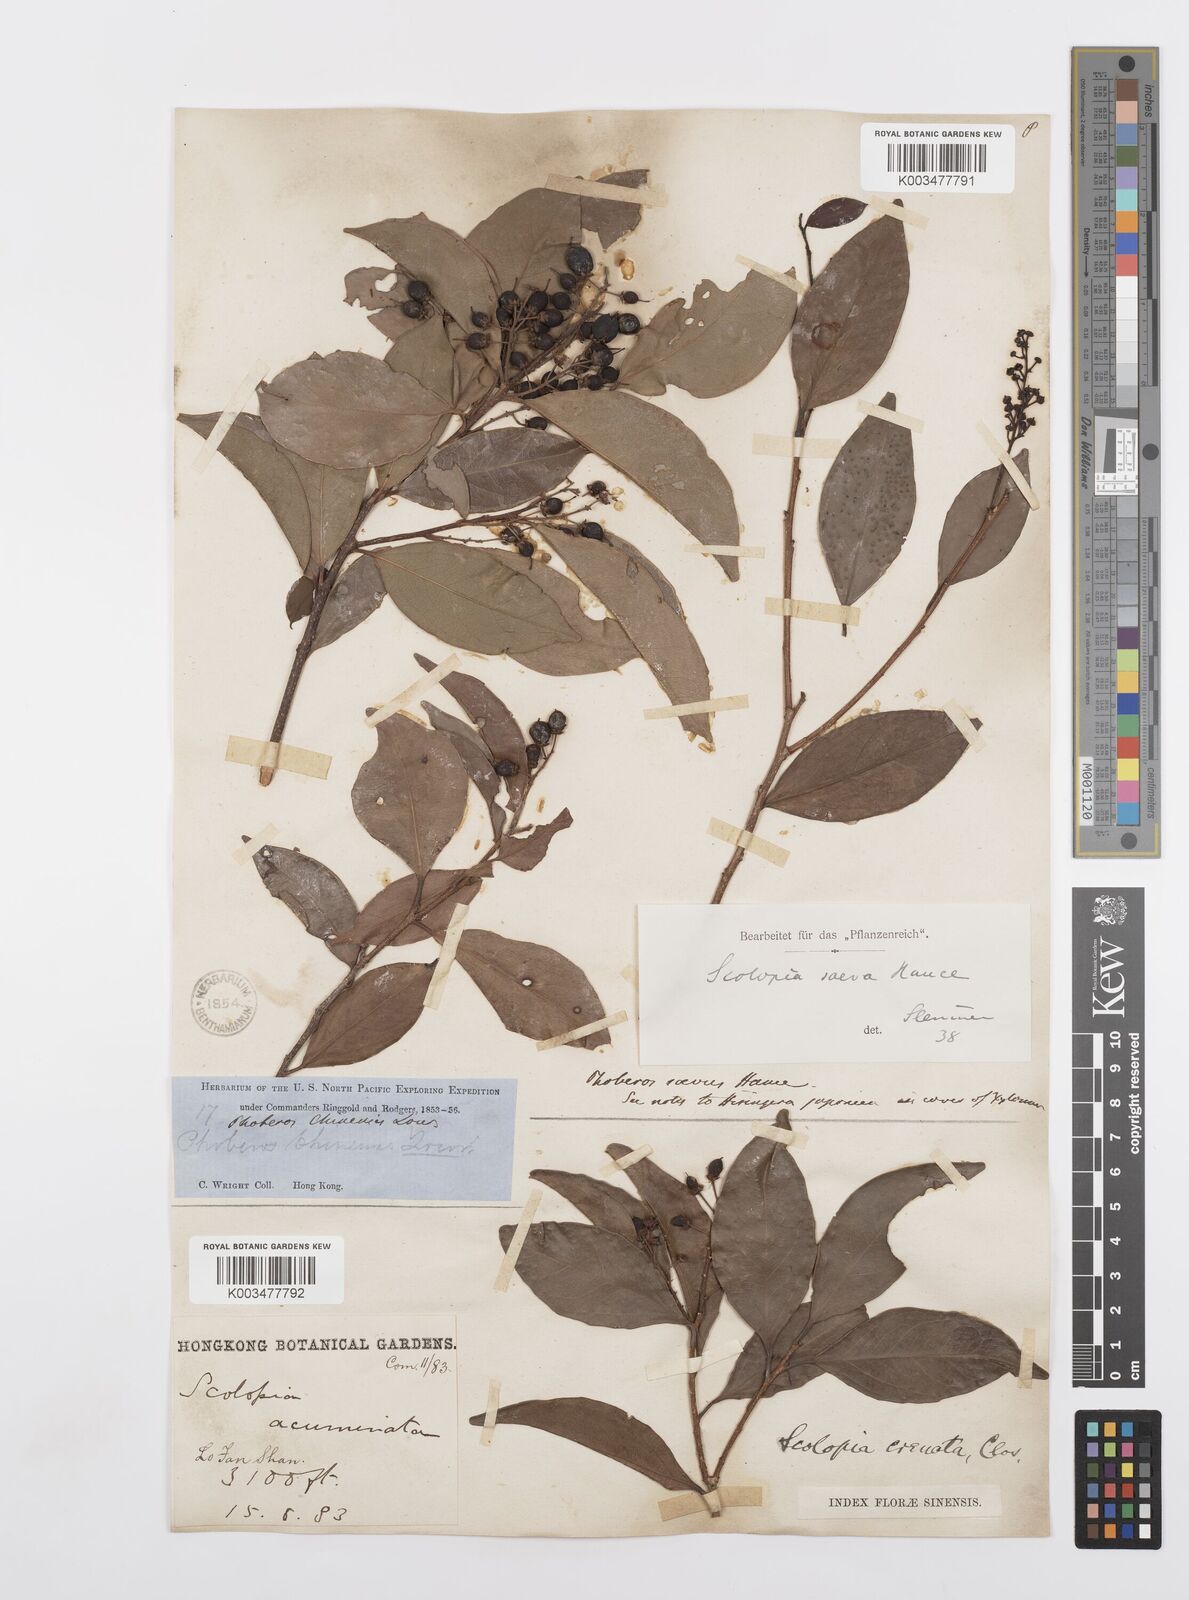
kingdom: Plantae
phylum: Tracheophyta
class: Magnoliopsida
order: Malpighiales
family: Salicaceae
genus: Scolopia
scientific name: Scolopia saeva
